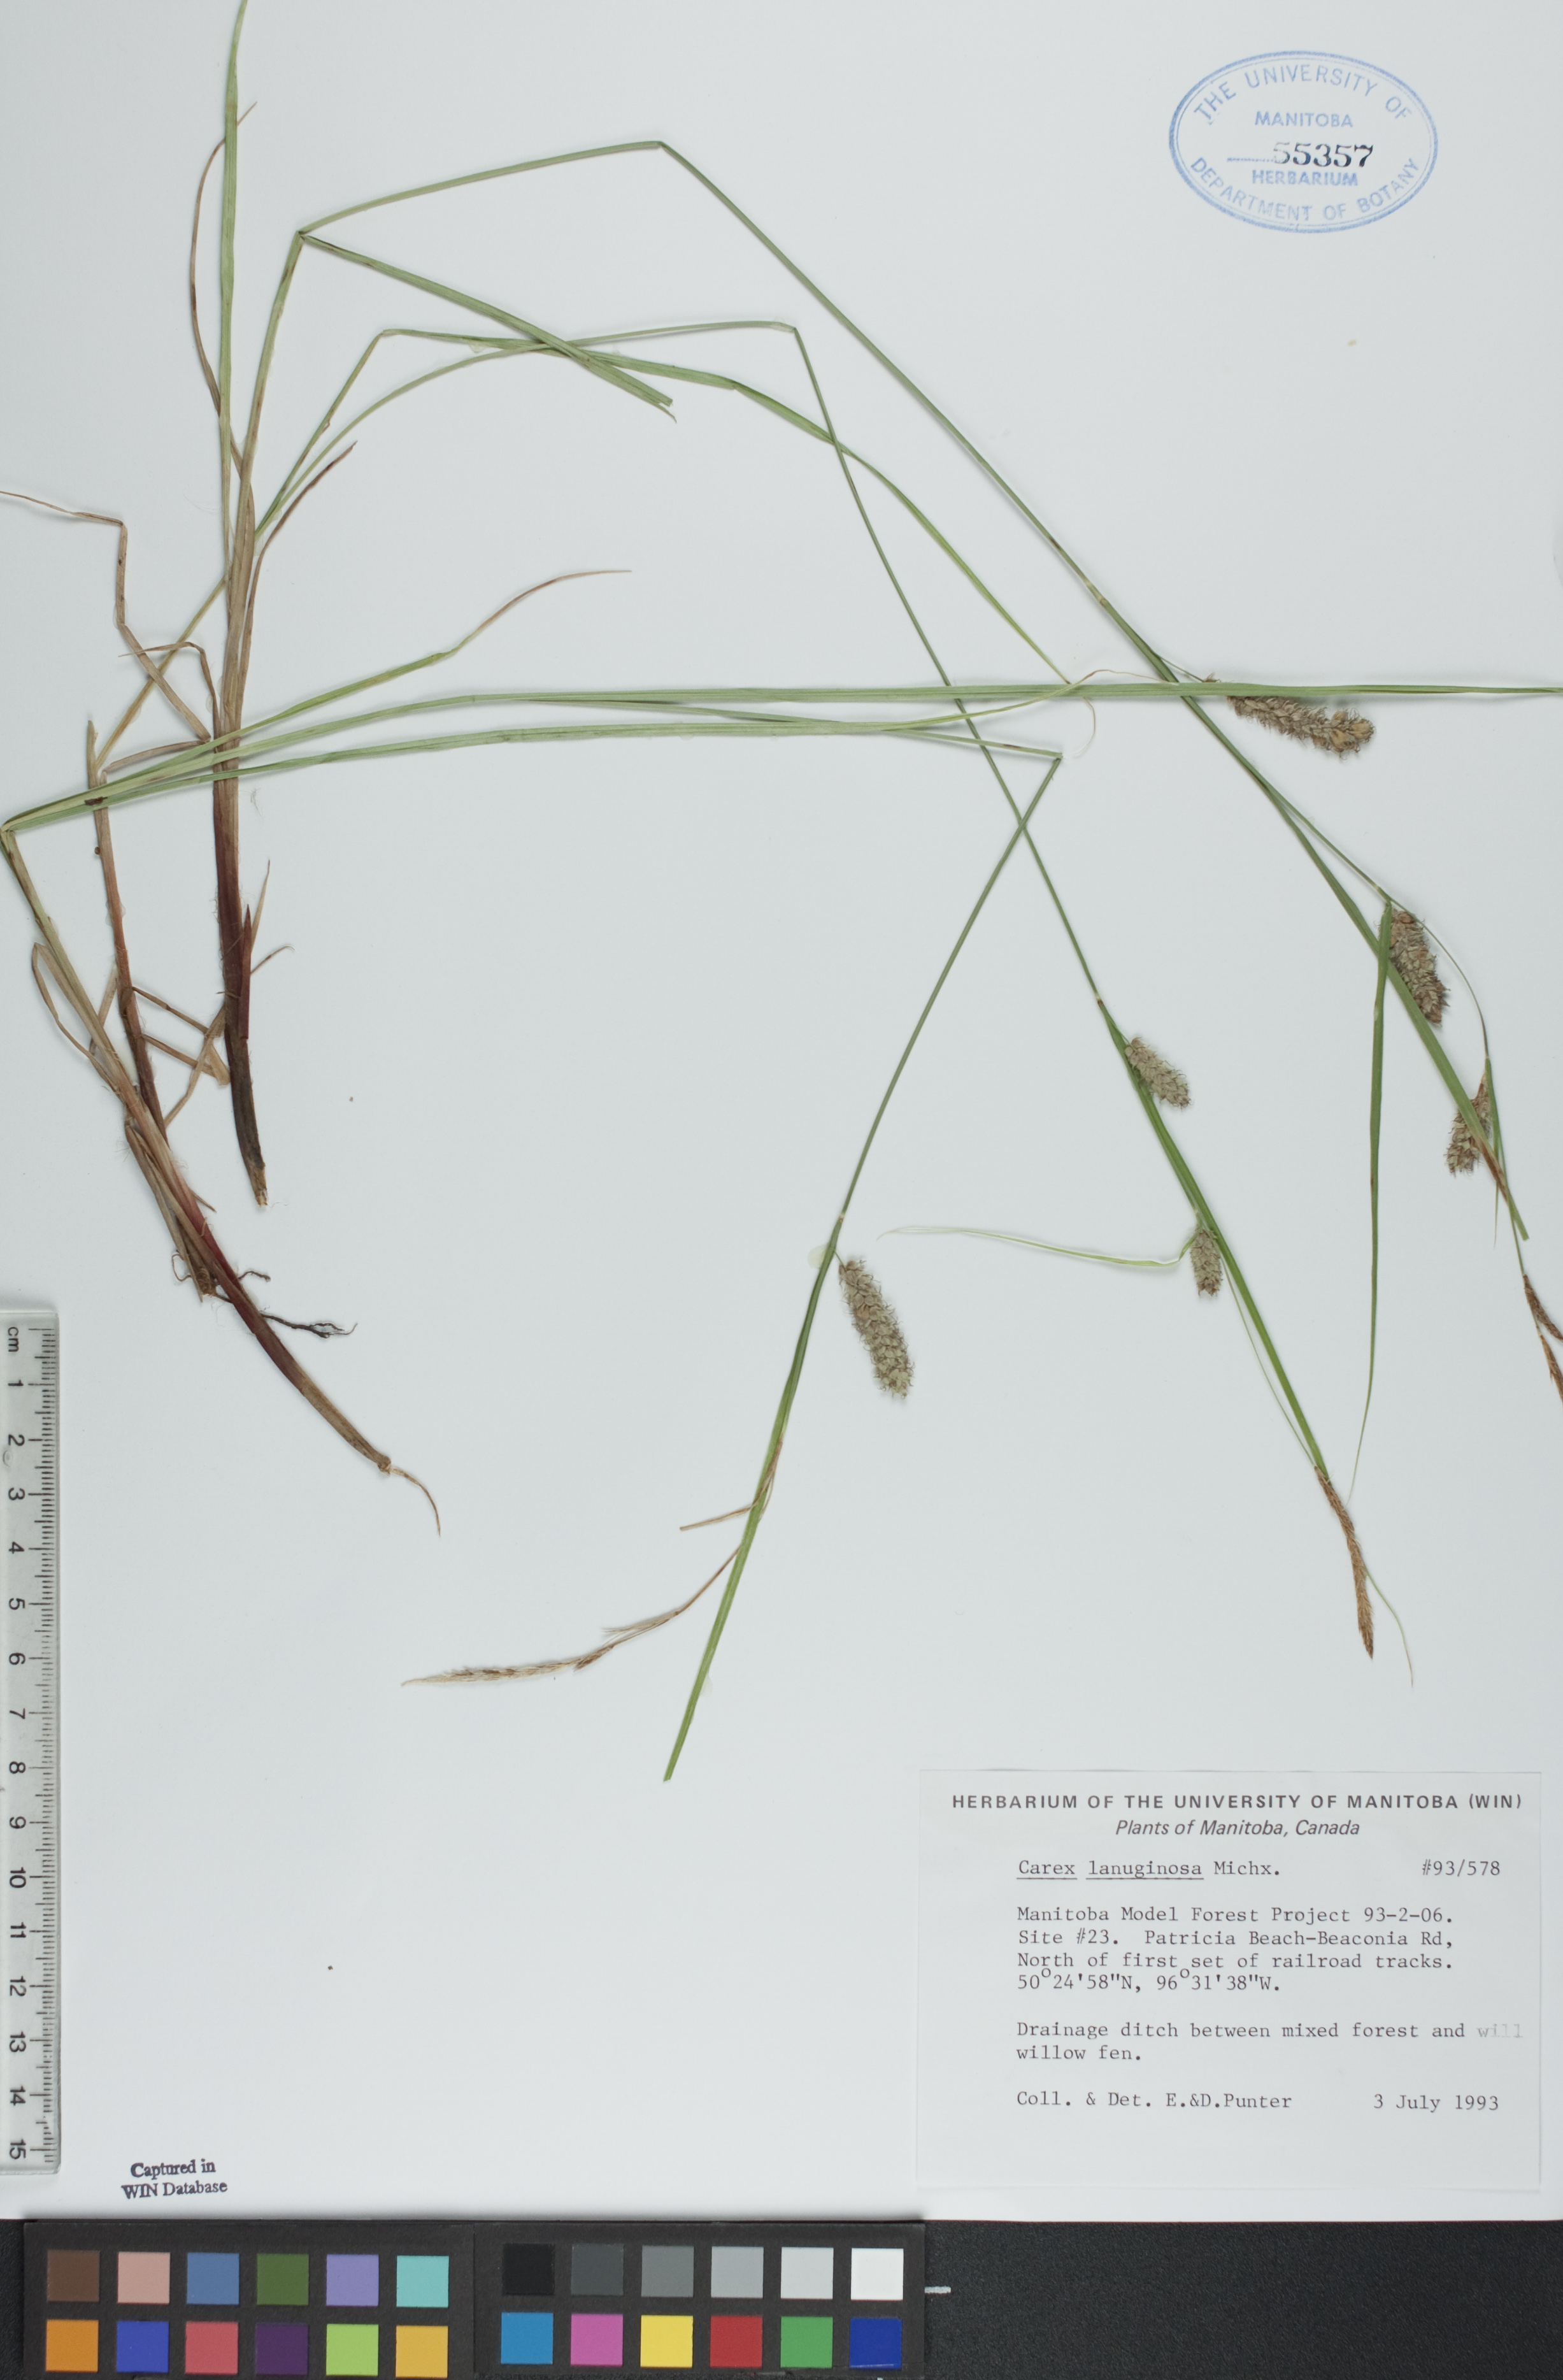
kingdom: Plantae
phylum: Tracheophyta
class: Liliopsida
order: Poales
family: Cyperaceae
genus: Carex
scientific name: Carex lasiocarpa
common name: Slender sedge
